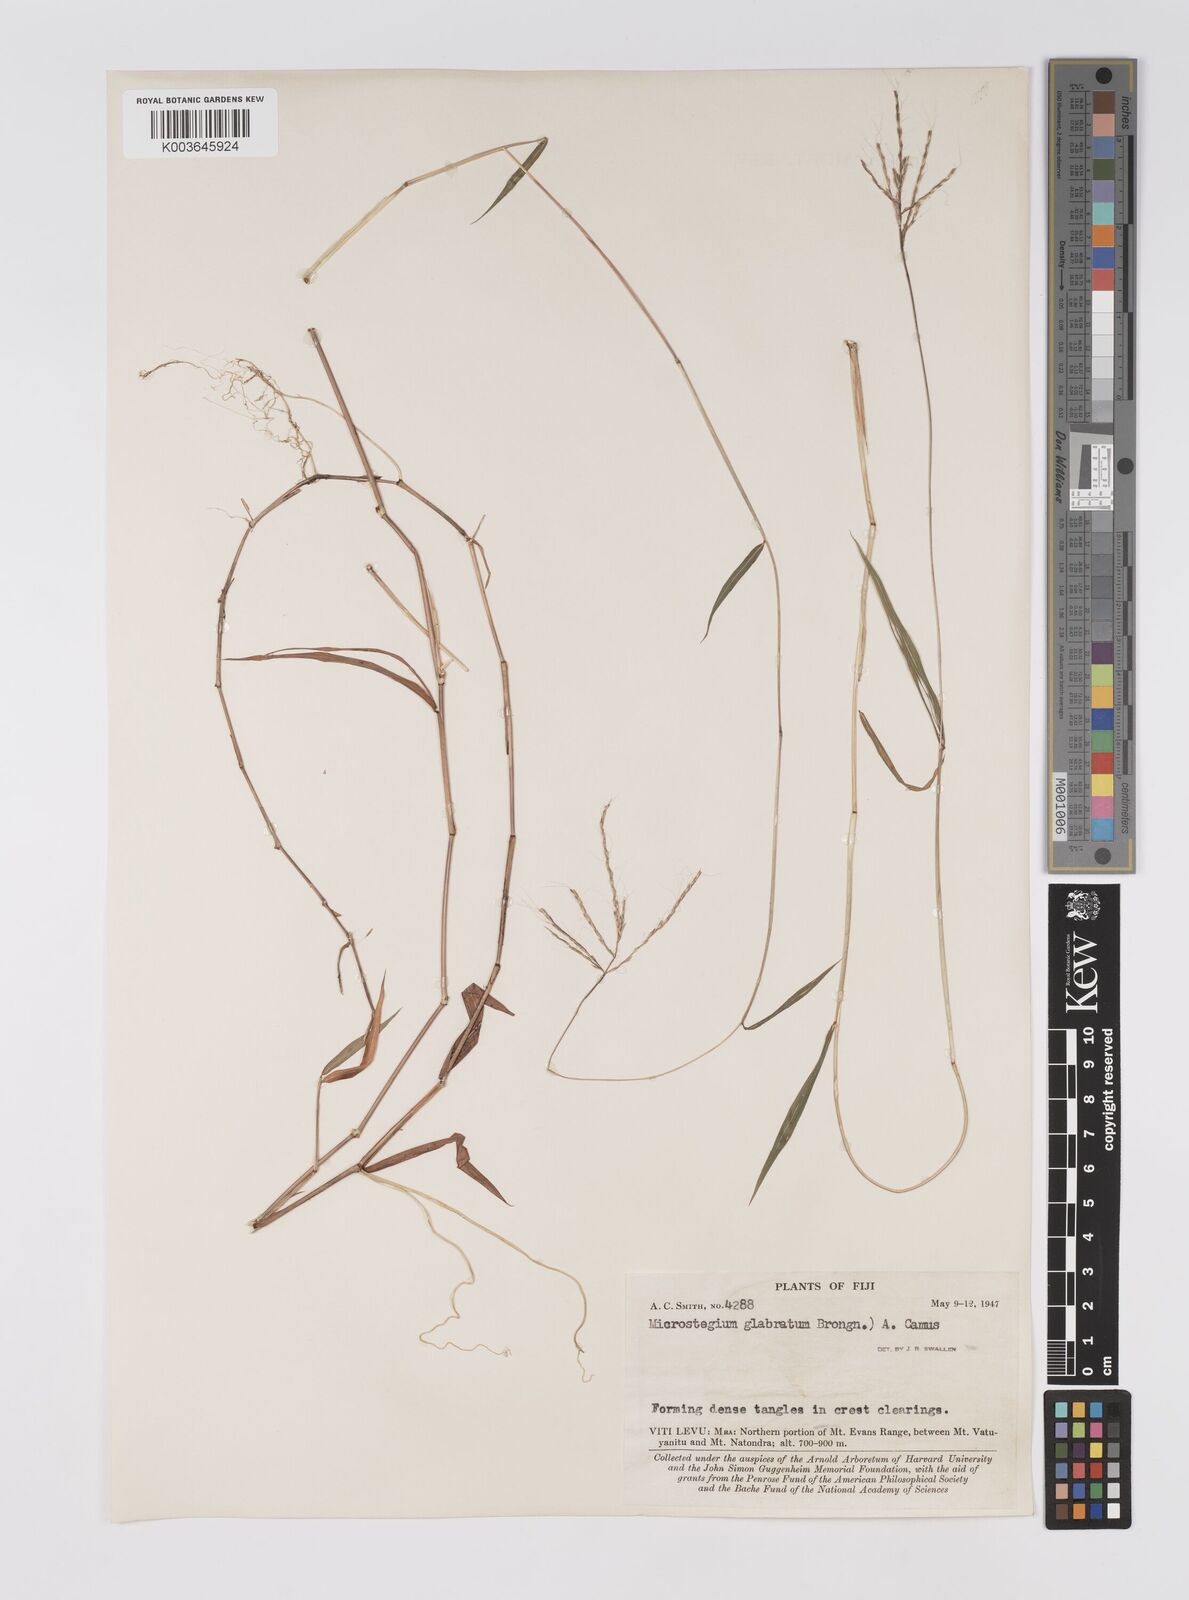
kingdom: Plantae
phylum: Tracheophyta
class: Liliopsida
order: Poales
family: Poaceae
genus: Microstegium
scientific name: Microstegium glabratum
